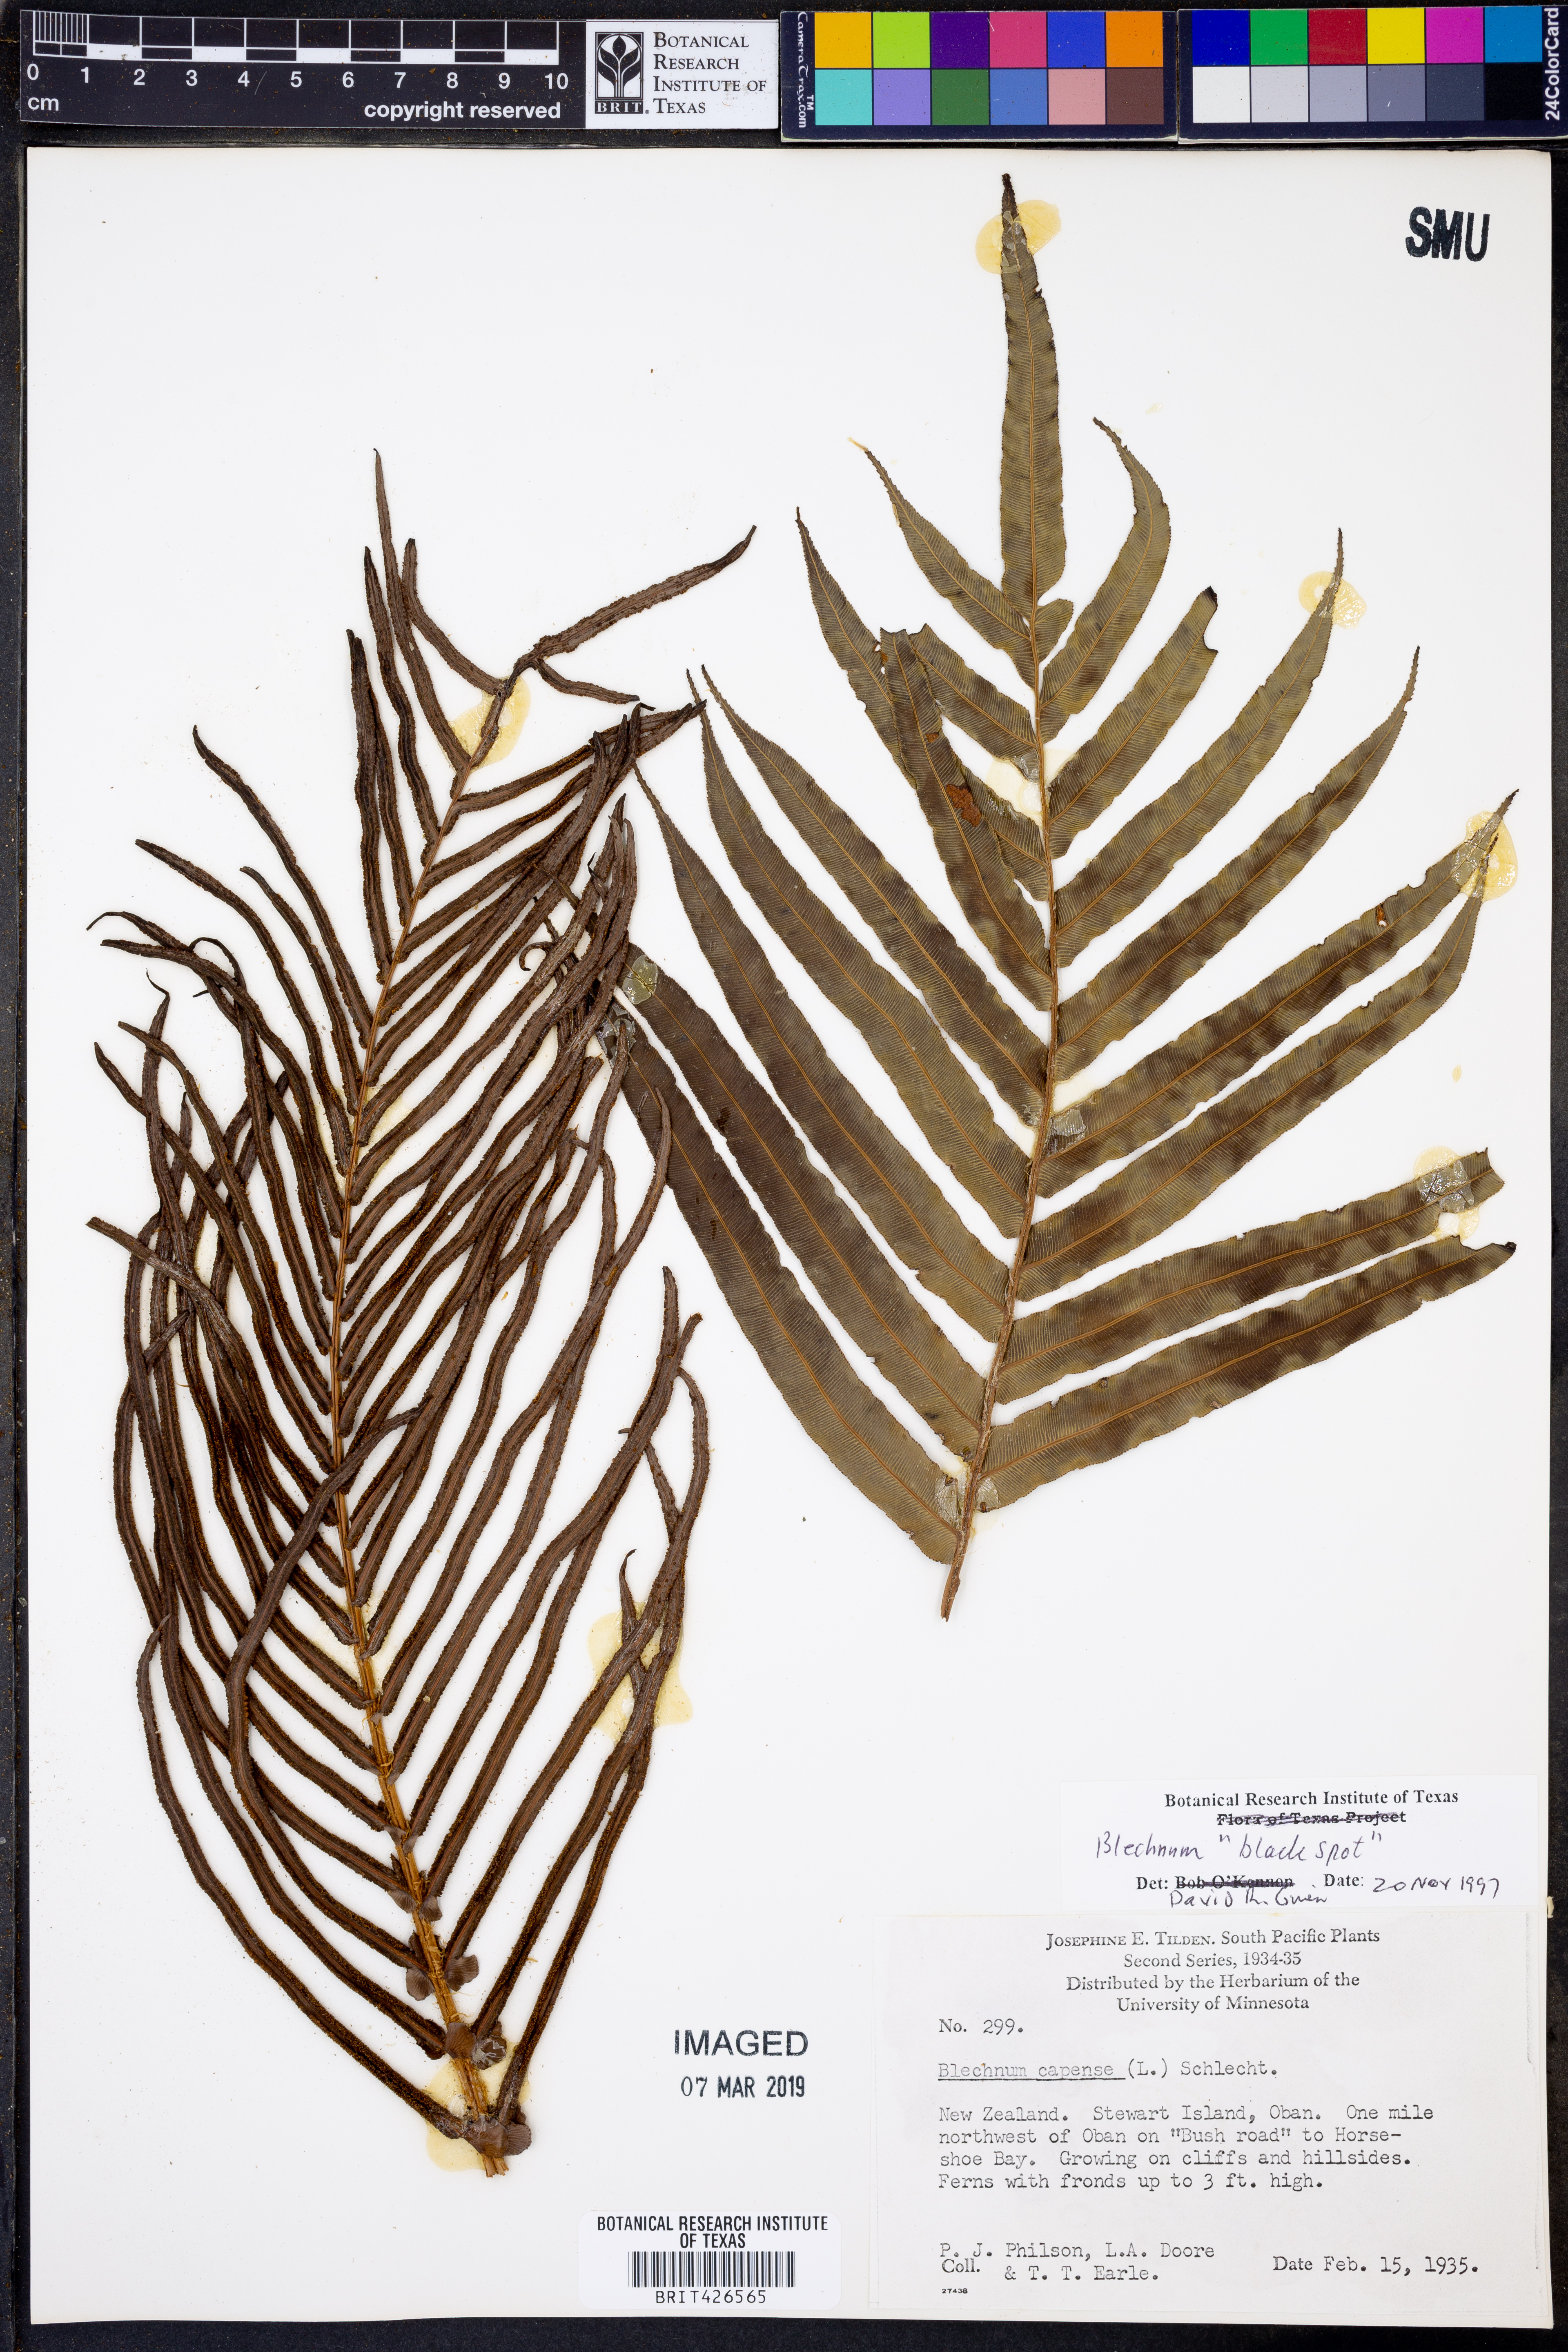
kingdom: Plantae
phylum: Tracheophyta
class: Polypodiopsida
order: Polypodiales
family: Blechnaceae
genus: Blechnum
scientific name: Blechnum
